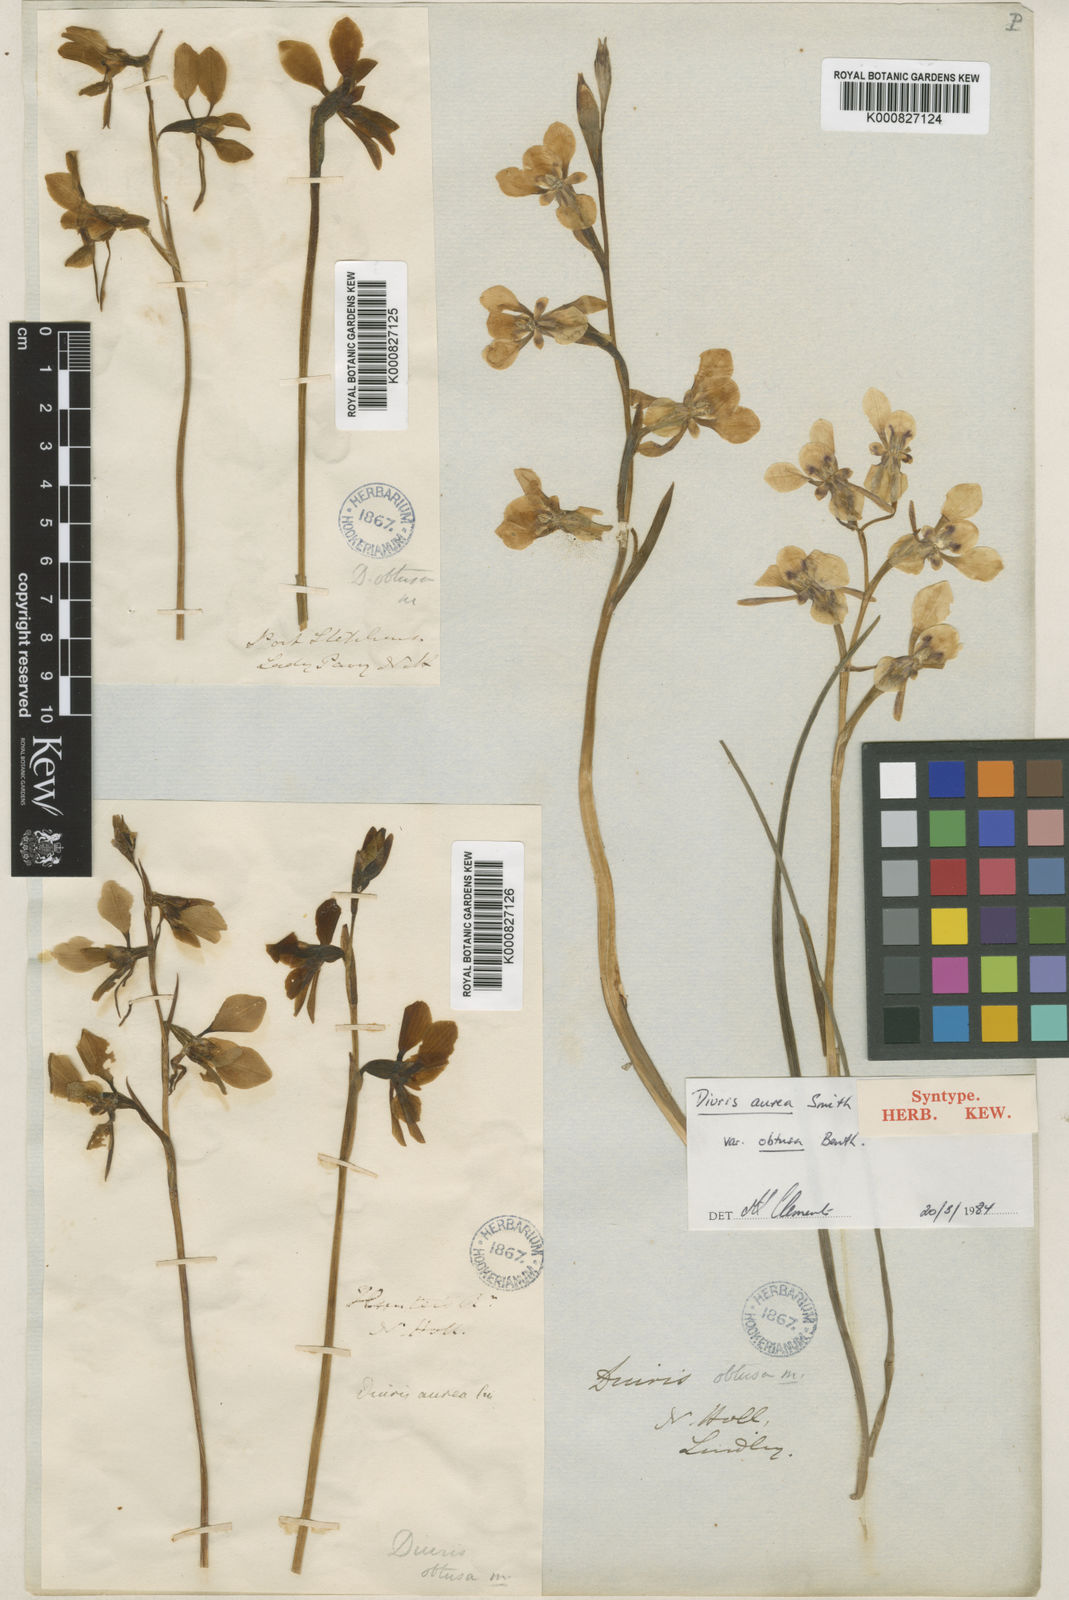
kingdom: Plantae
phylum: Tracheophyta
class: Liliopsida
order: Asparagales
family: Orchidaceae
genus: Diuris
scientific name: Diuris aurea
